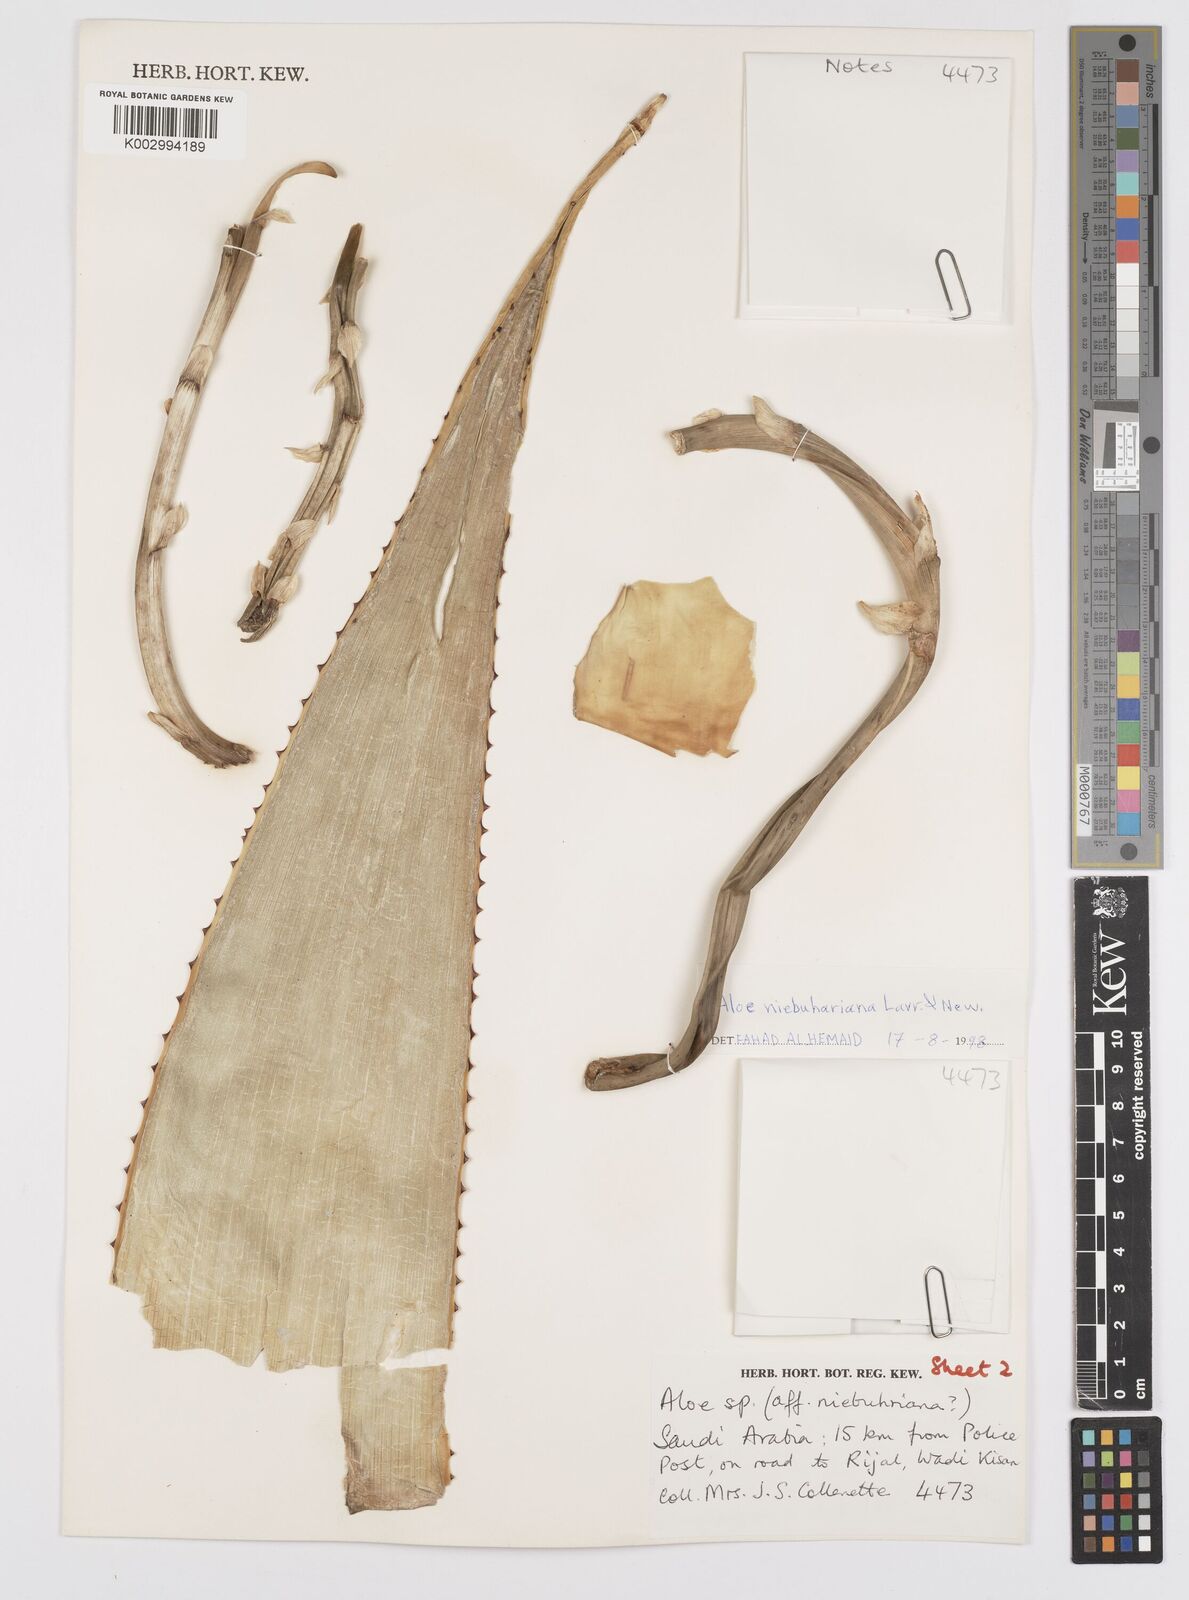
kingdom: Plantae
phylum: Tracheophyta
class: Liliopsida
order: Asparagales
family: Asphodelaceae
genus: Aloe
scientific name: Aloe niebuhriana
